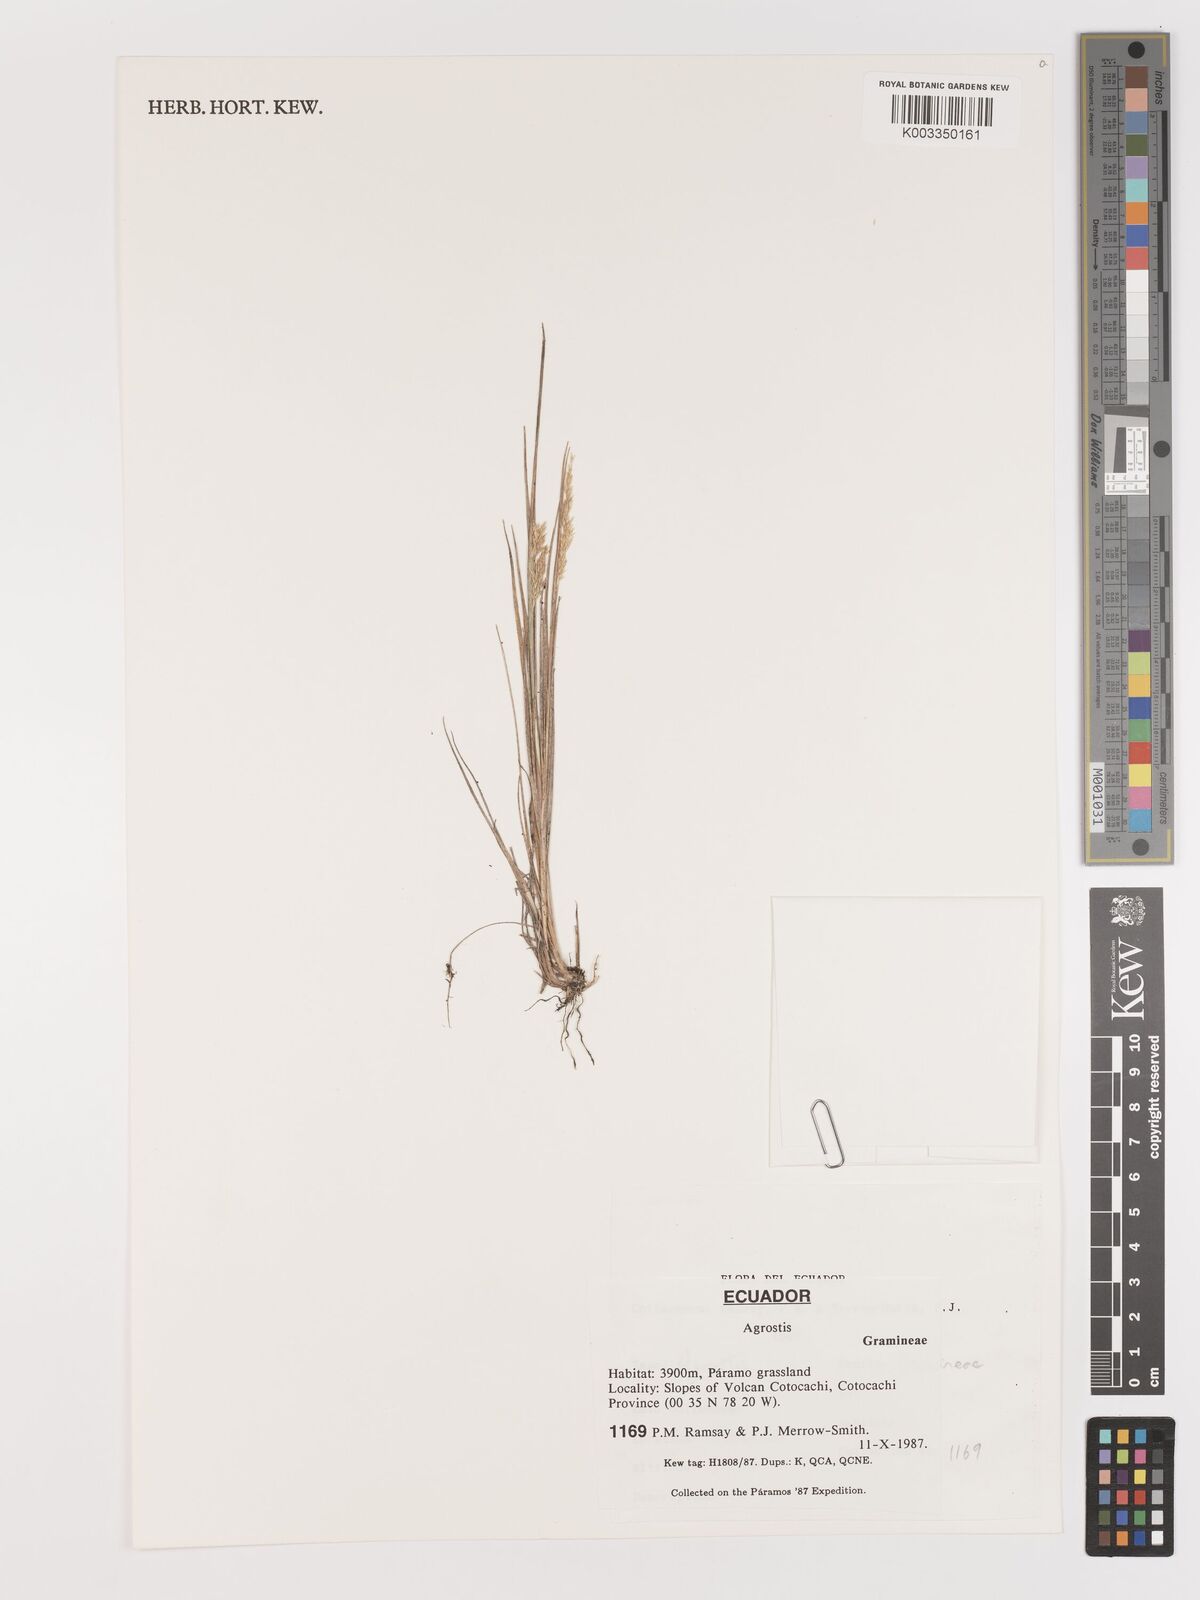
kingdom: Plantae
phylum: Tracheophyta
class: Liliopsida
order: Poales
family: Poaceae
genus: Agrostis
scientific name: Agrostis
